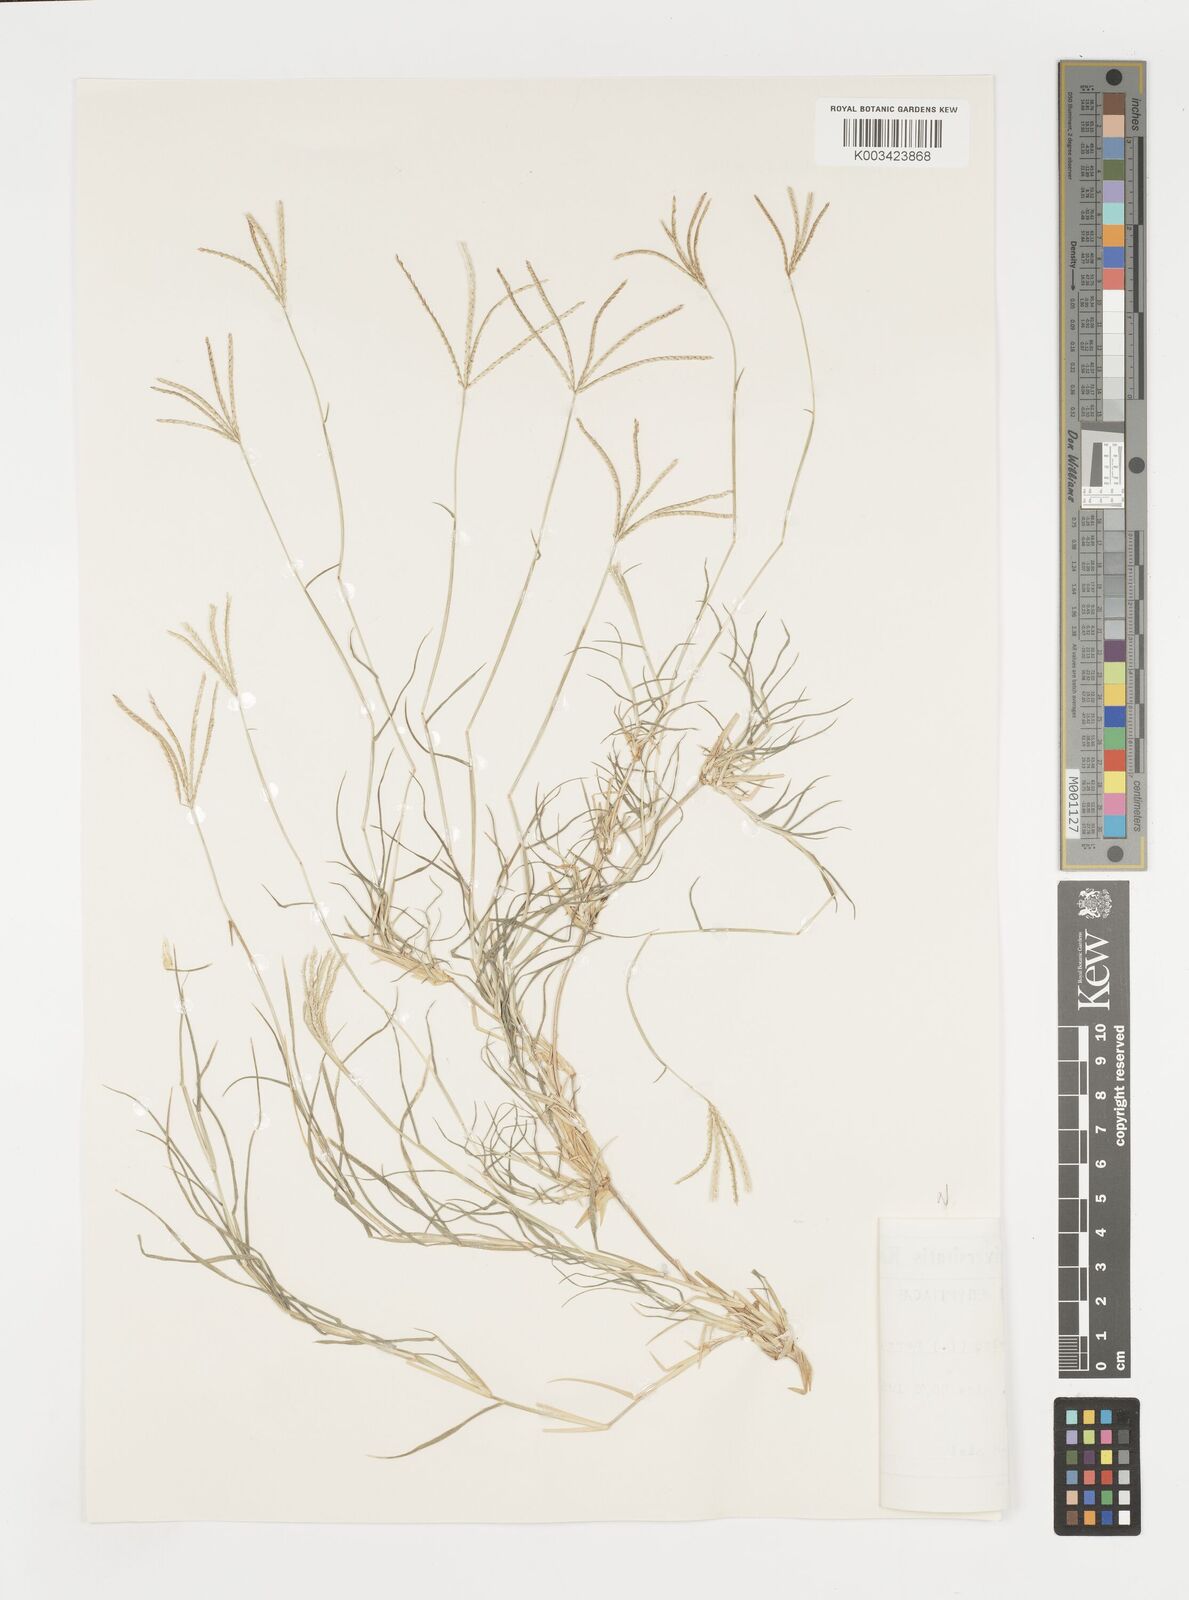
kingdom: Plantae
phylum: Tracheophyta
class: Liliopsida
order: Poales
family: Poaceae
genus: Cynodon
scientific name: Cynodon dactylon
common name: Bermuda grass
